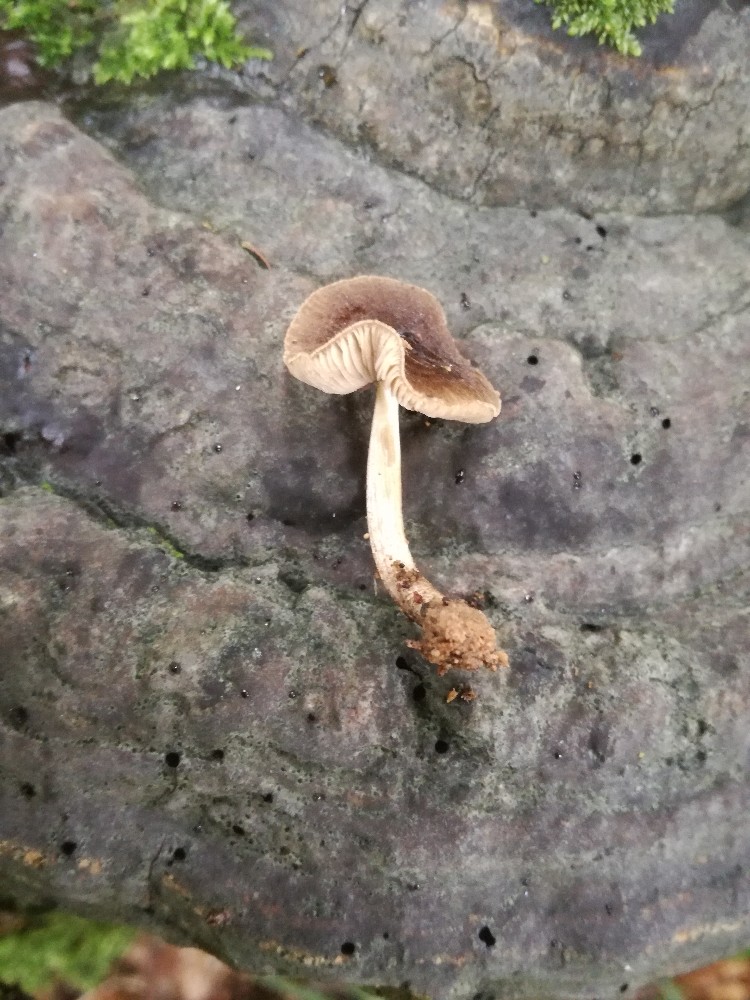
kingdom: Fungi
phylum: Basidiomycota
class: Agaricomycetes
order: Agaricales
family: Pluteaceae
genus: Pluteus
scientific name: Pluteus plautus
